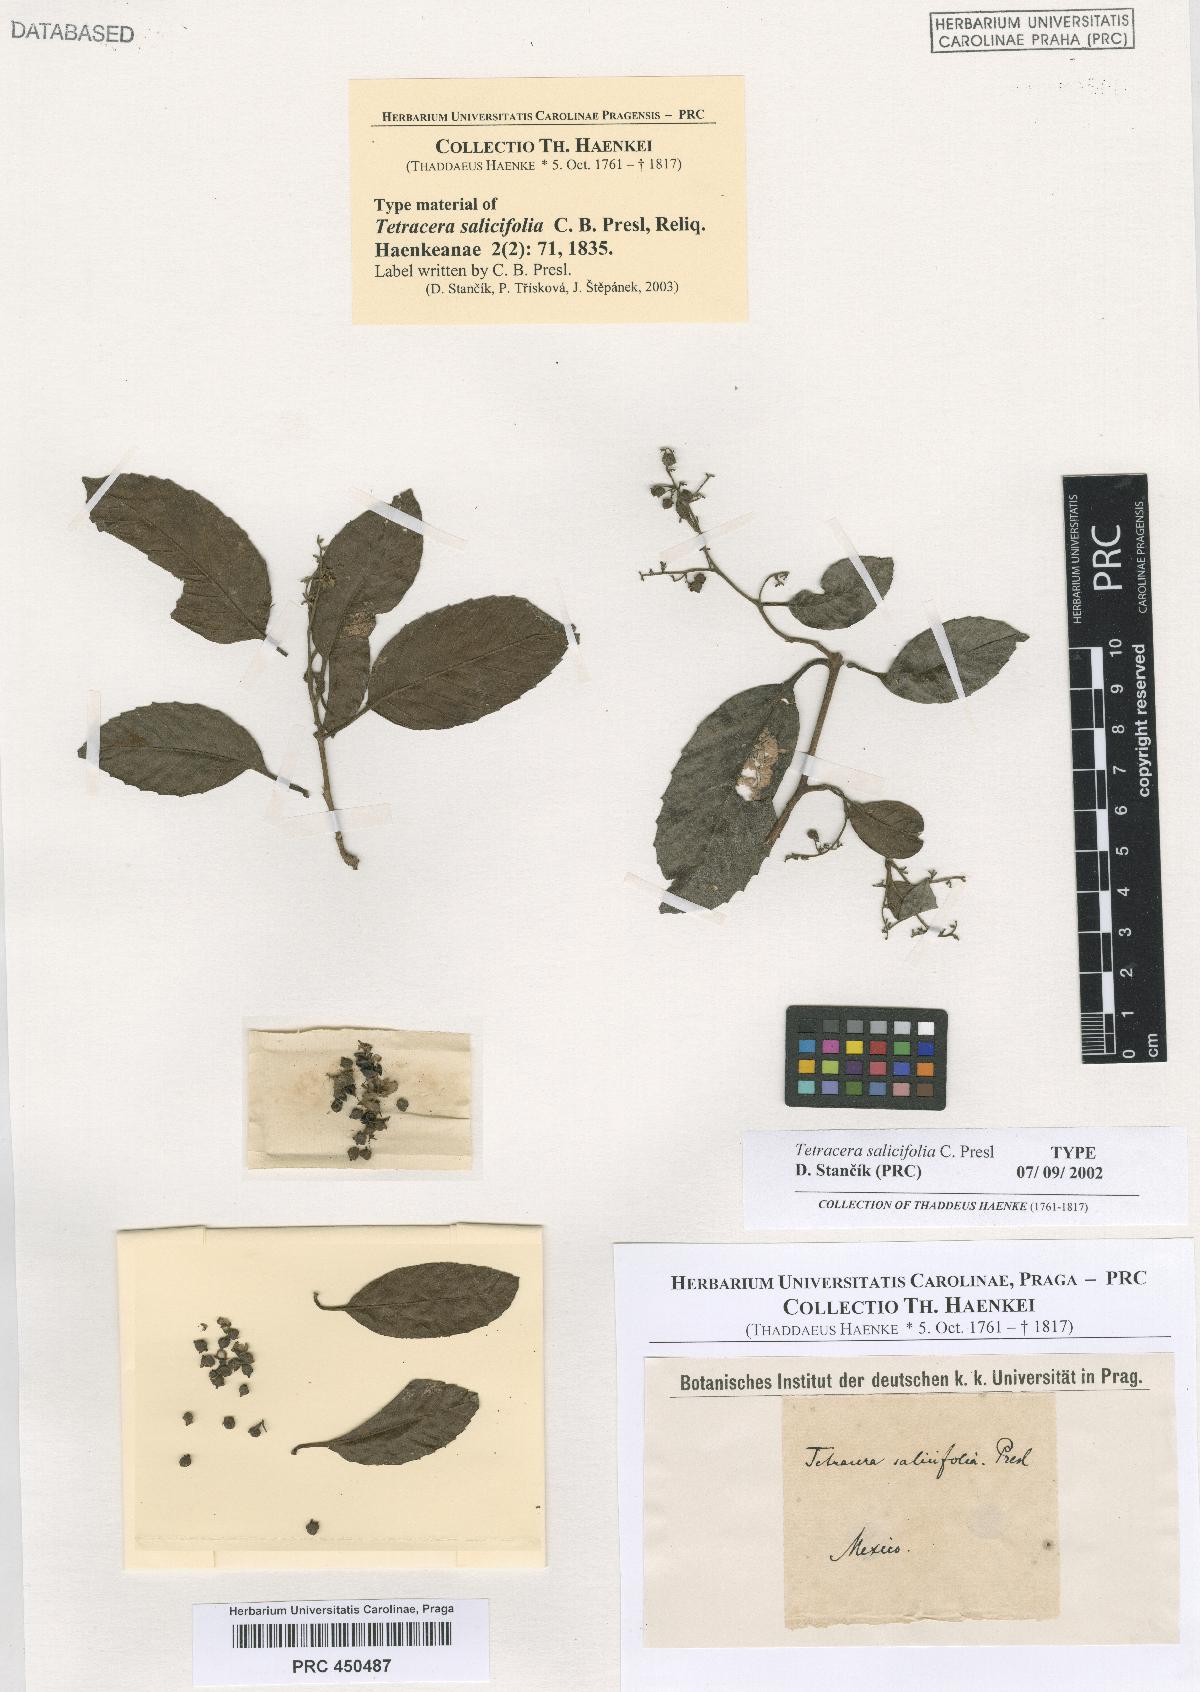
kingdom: Plantae
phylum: Tracheophyta
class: Magnoliopsida
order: Dilleniales
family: Dilleniaceae
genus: Tetracera
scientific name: Tetracera volubilis
